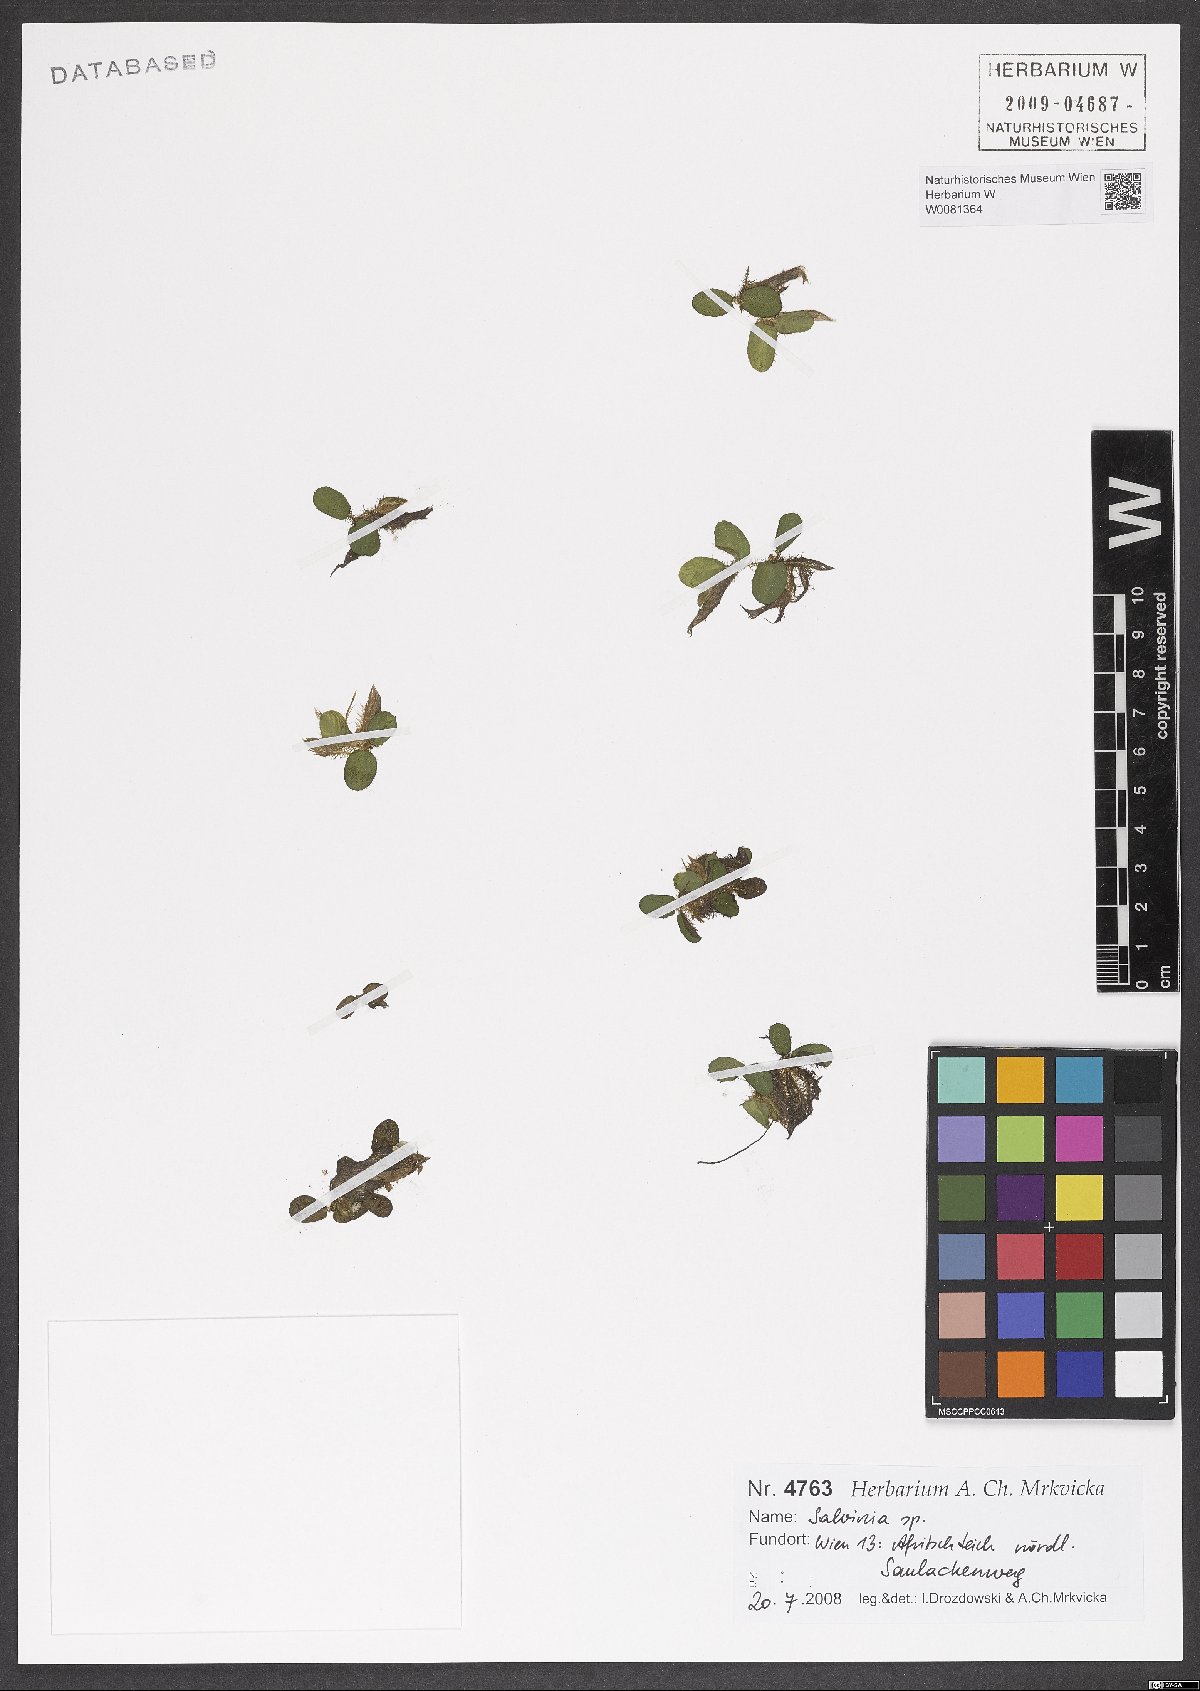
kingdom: Plantae
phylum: Tracheophyta
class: Polypodiopsida
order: Salviniales
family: Salviniaceae
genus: Salvinia
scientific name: Salvinia natans
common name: Floating fern
